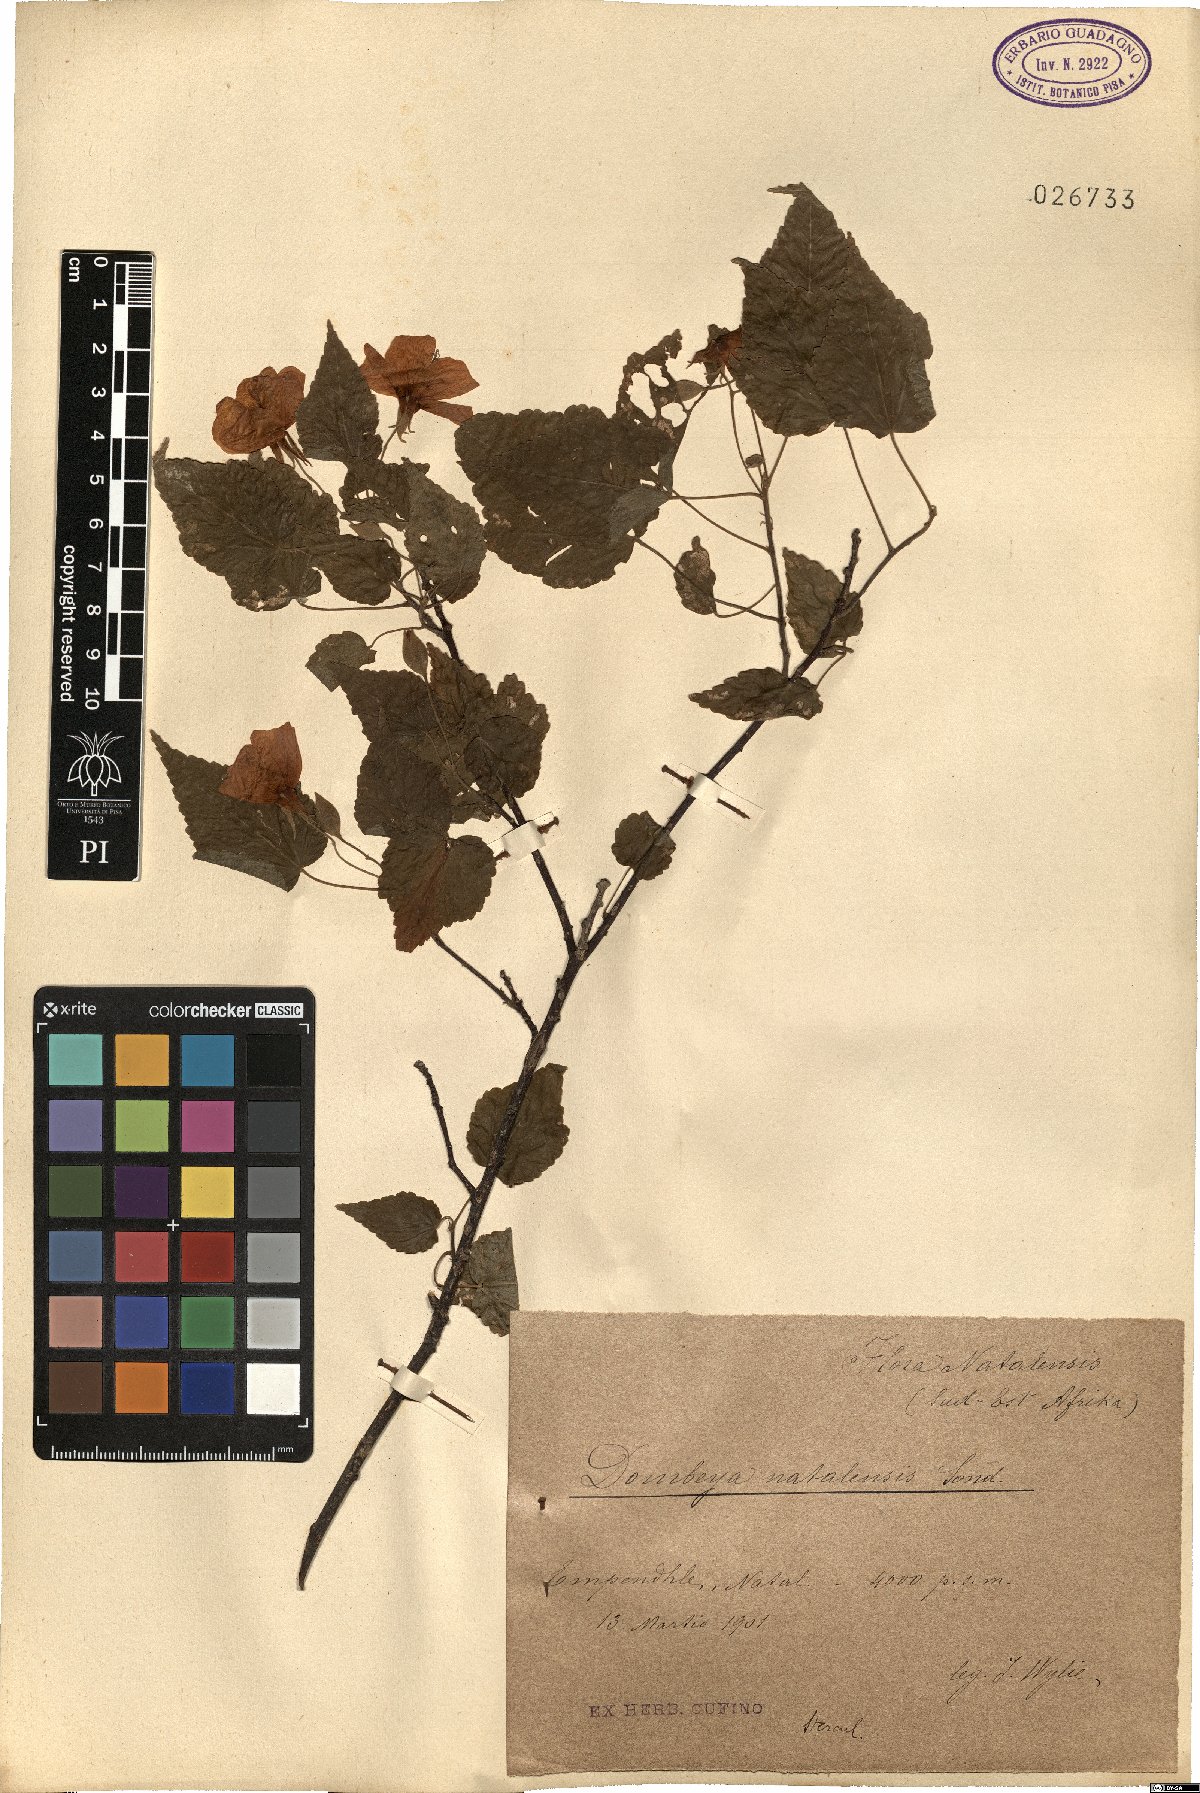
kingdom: Plantae
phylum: Tracheophyta
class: Magnoliopsida
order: Malvales
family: Malvaceae
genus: Dombeya
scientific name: Dombeya tiliacea
